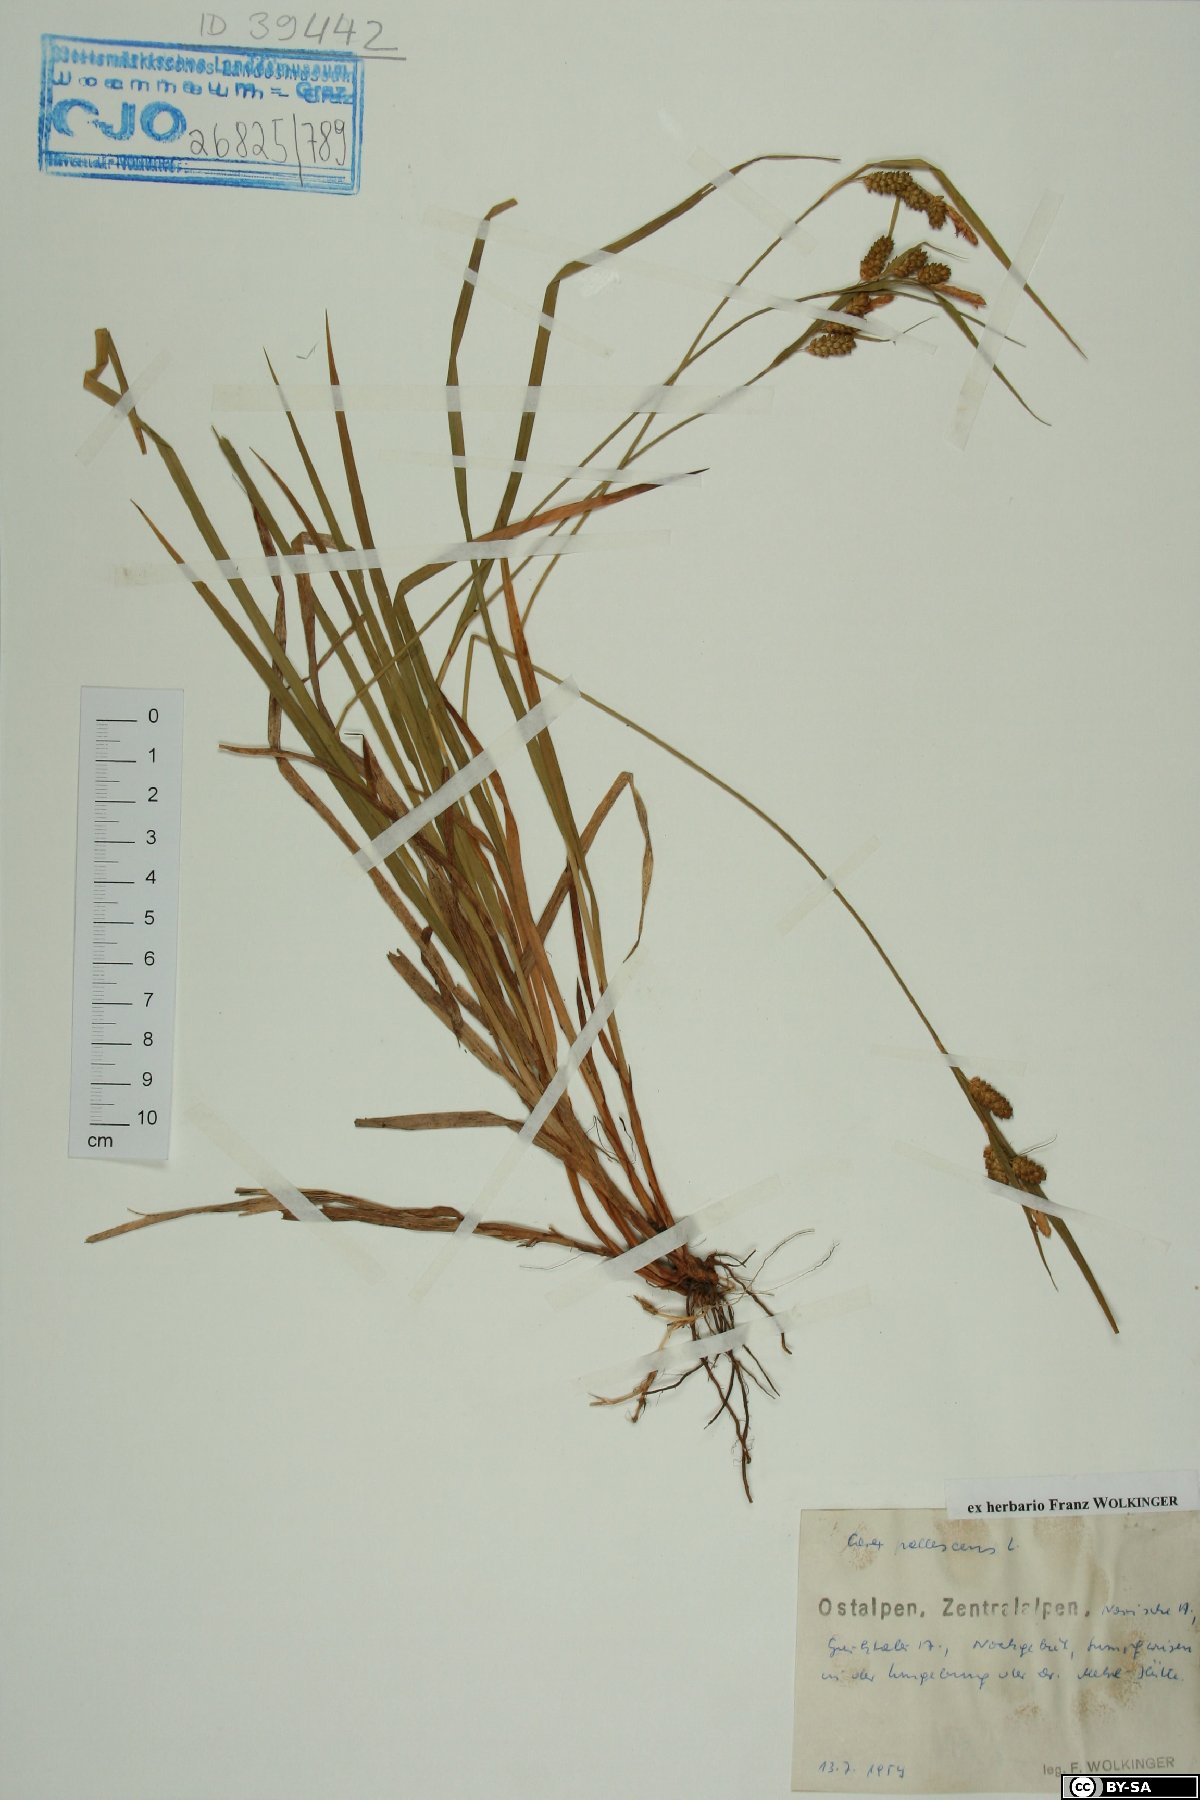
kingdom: Plantae
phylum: Tracheophyta
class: Liliopsida
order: Poales
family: Cyperaceae
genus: Carex
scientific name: Carex pallescens
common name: Pale sedge
